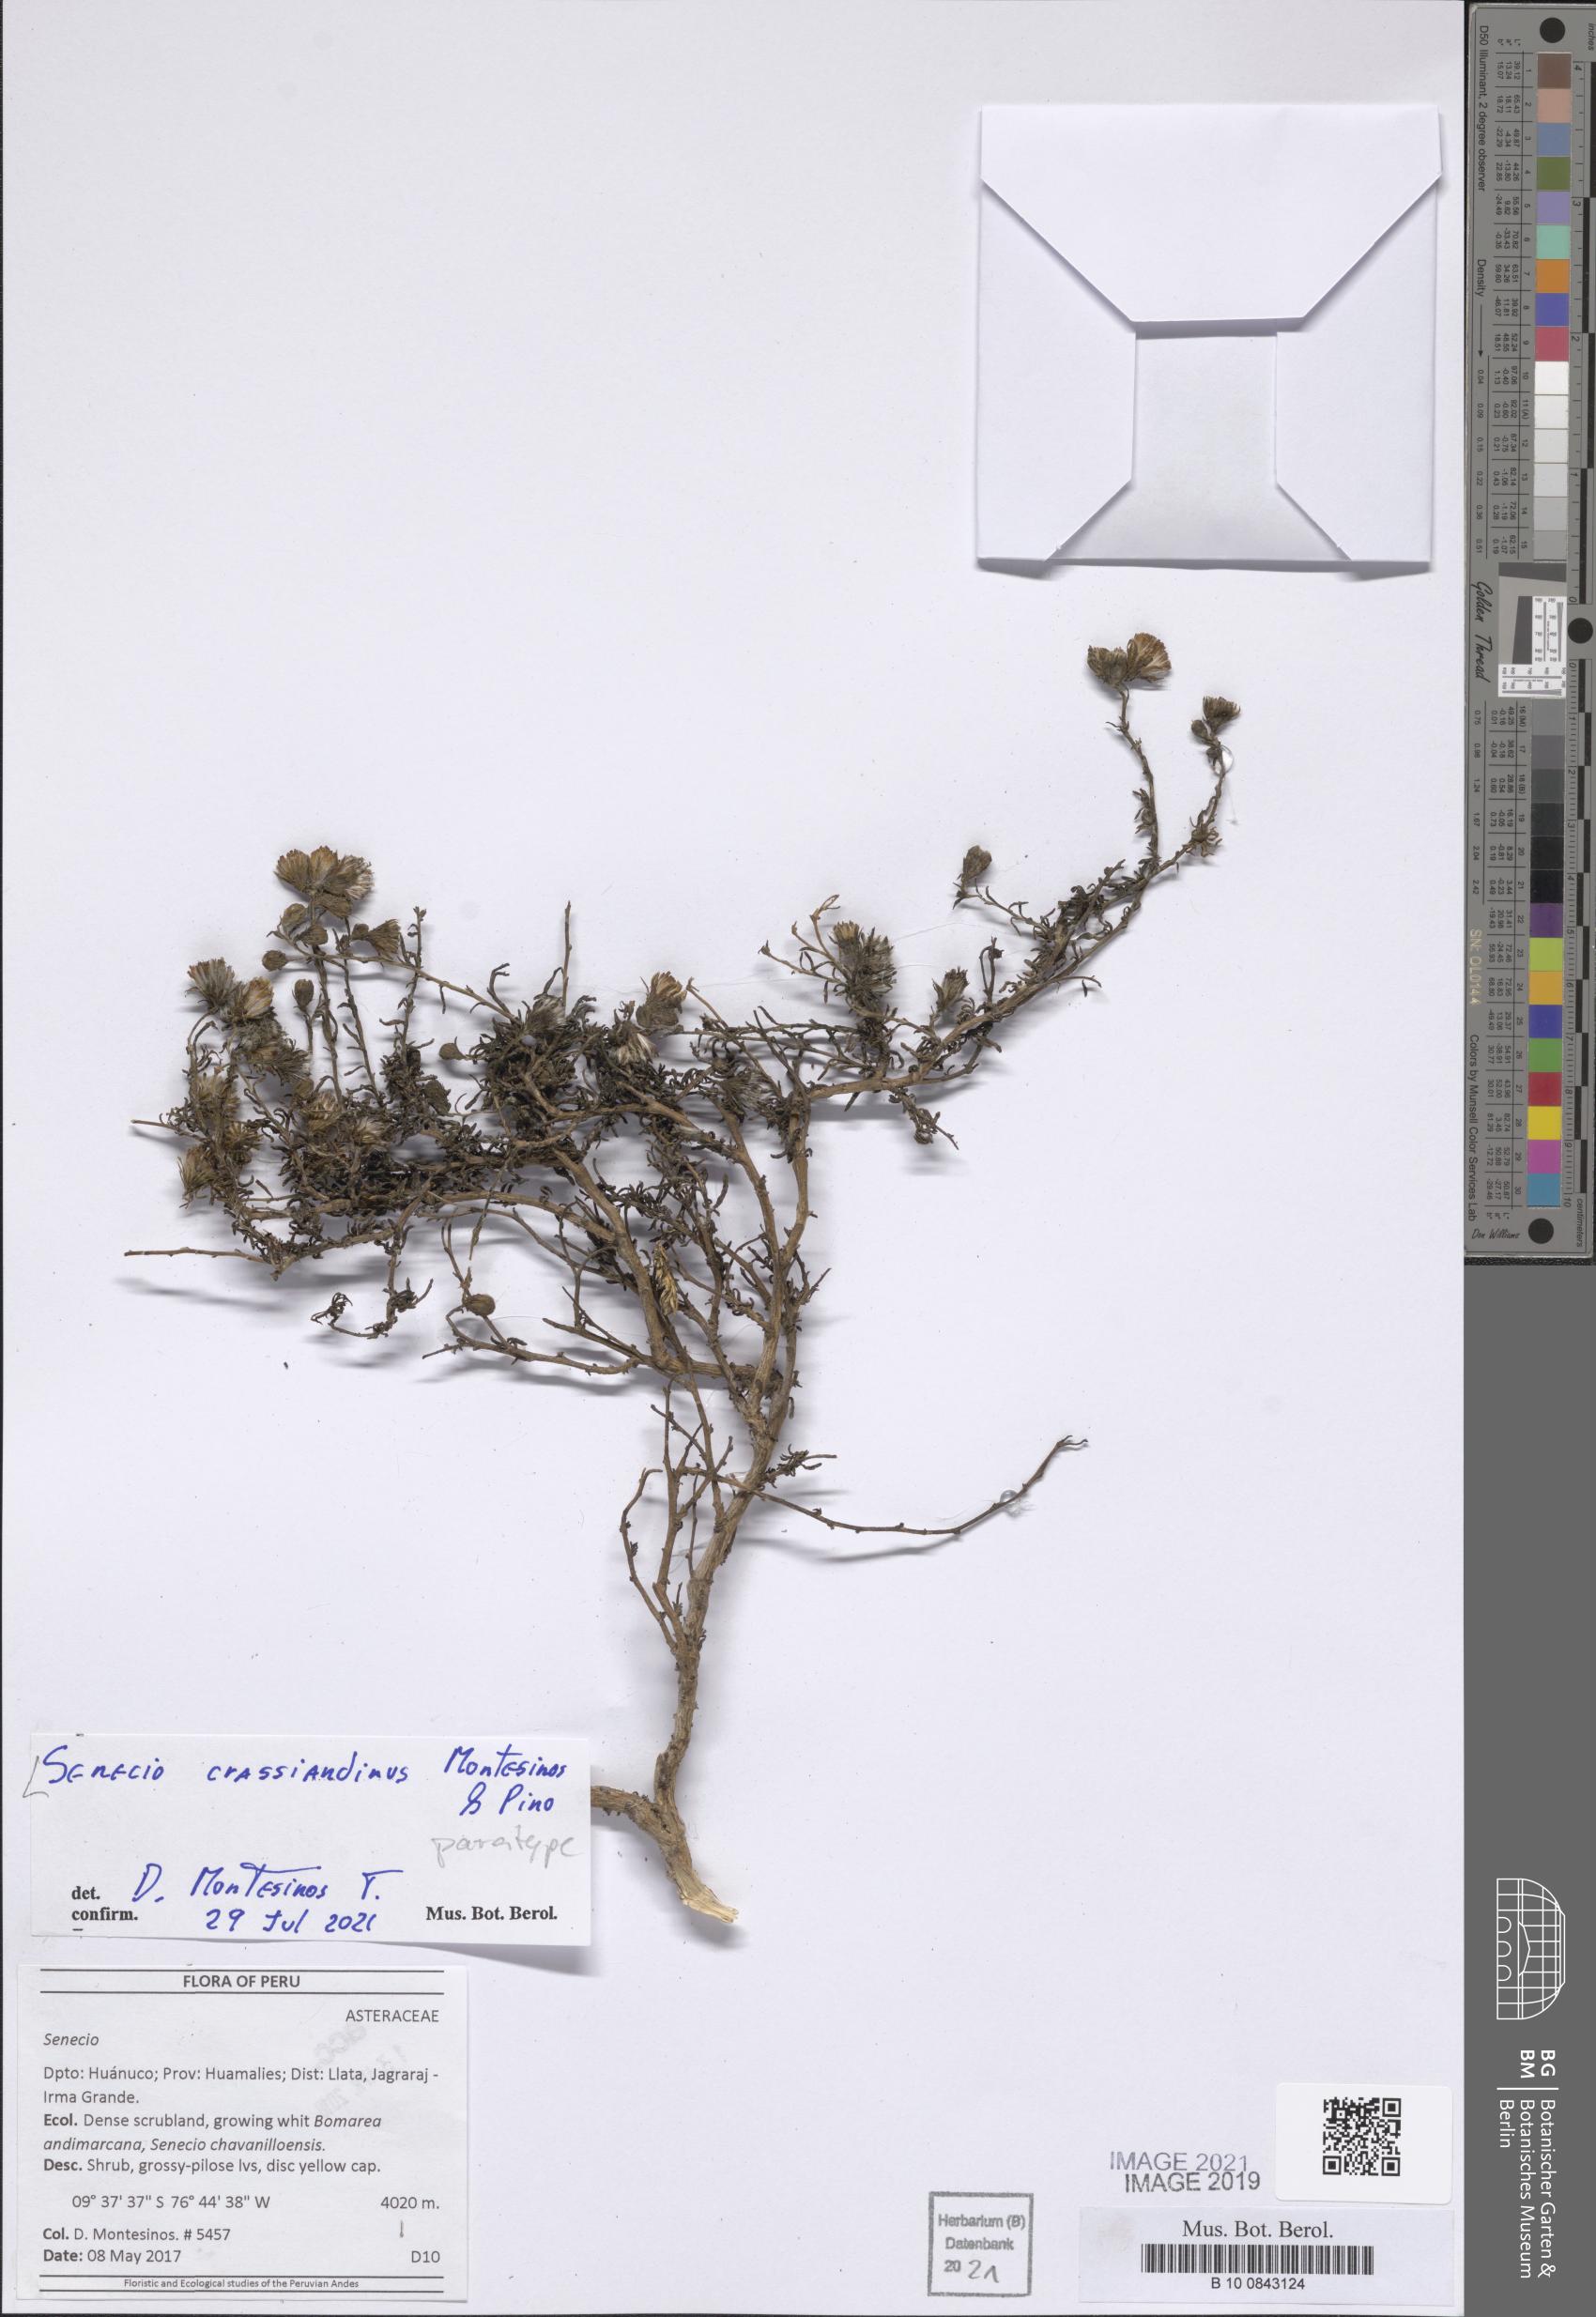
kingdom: Plantae
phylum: Tracheophyta
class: Magnoliopsida
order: Asterales
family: Asteraceae
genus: Senecio
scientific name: Senecio crassiandinus
